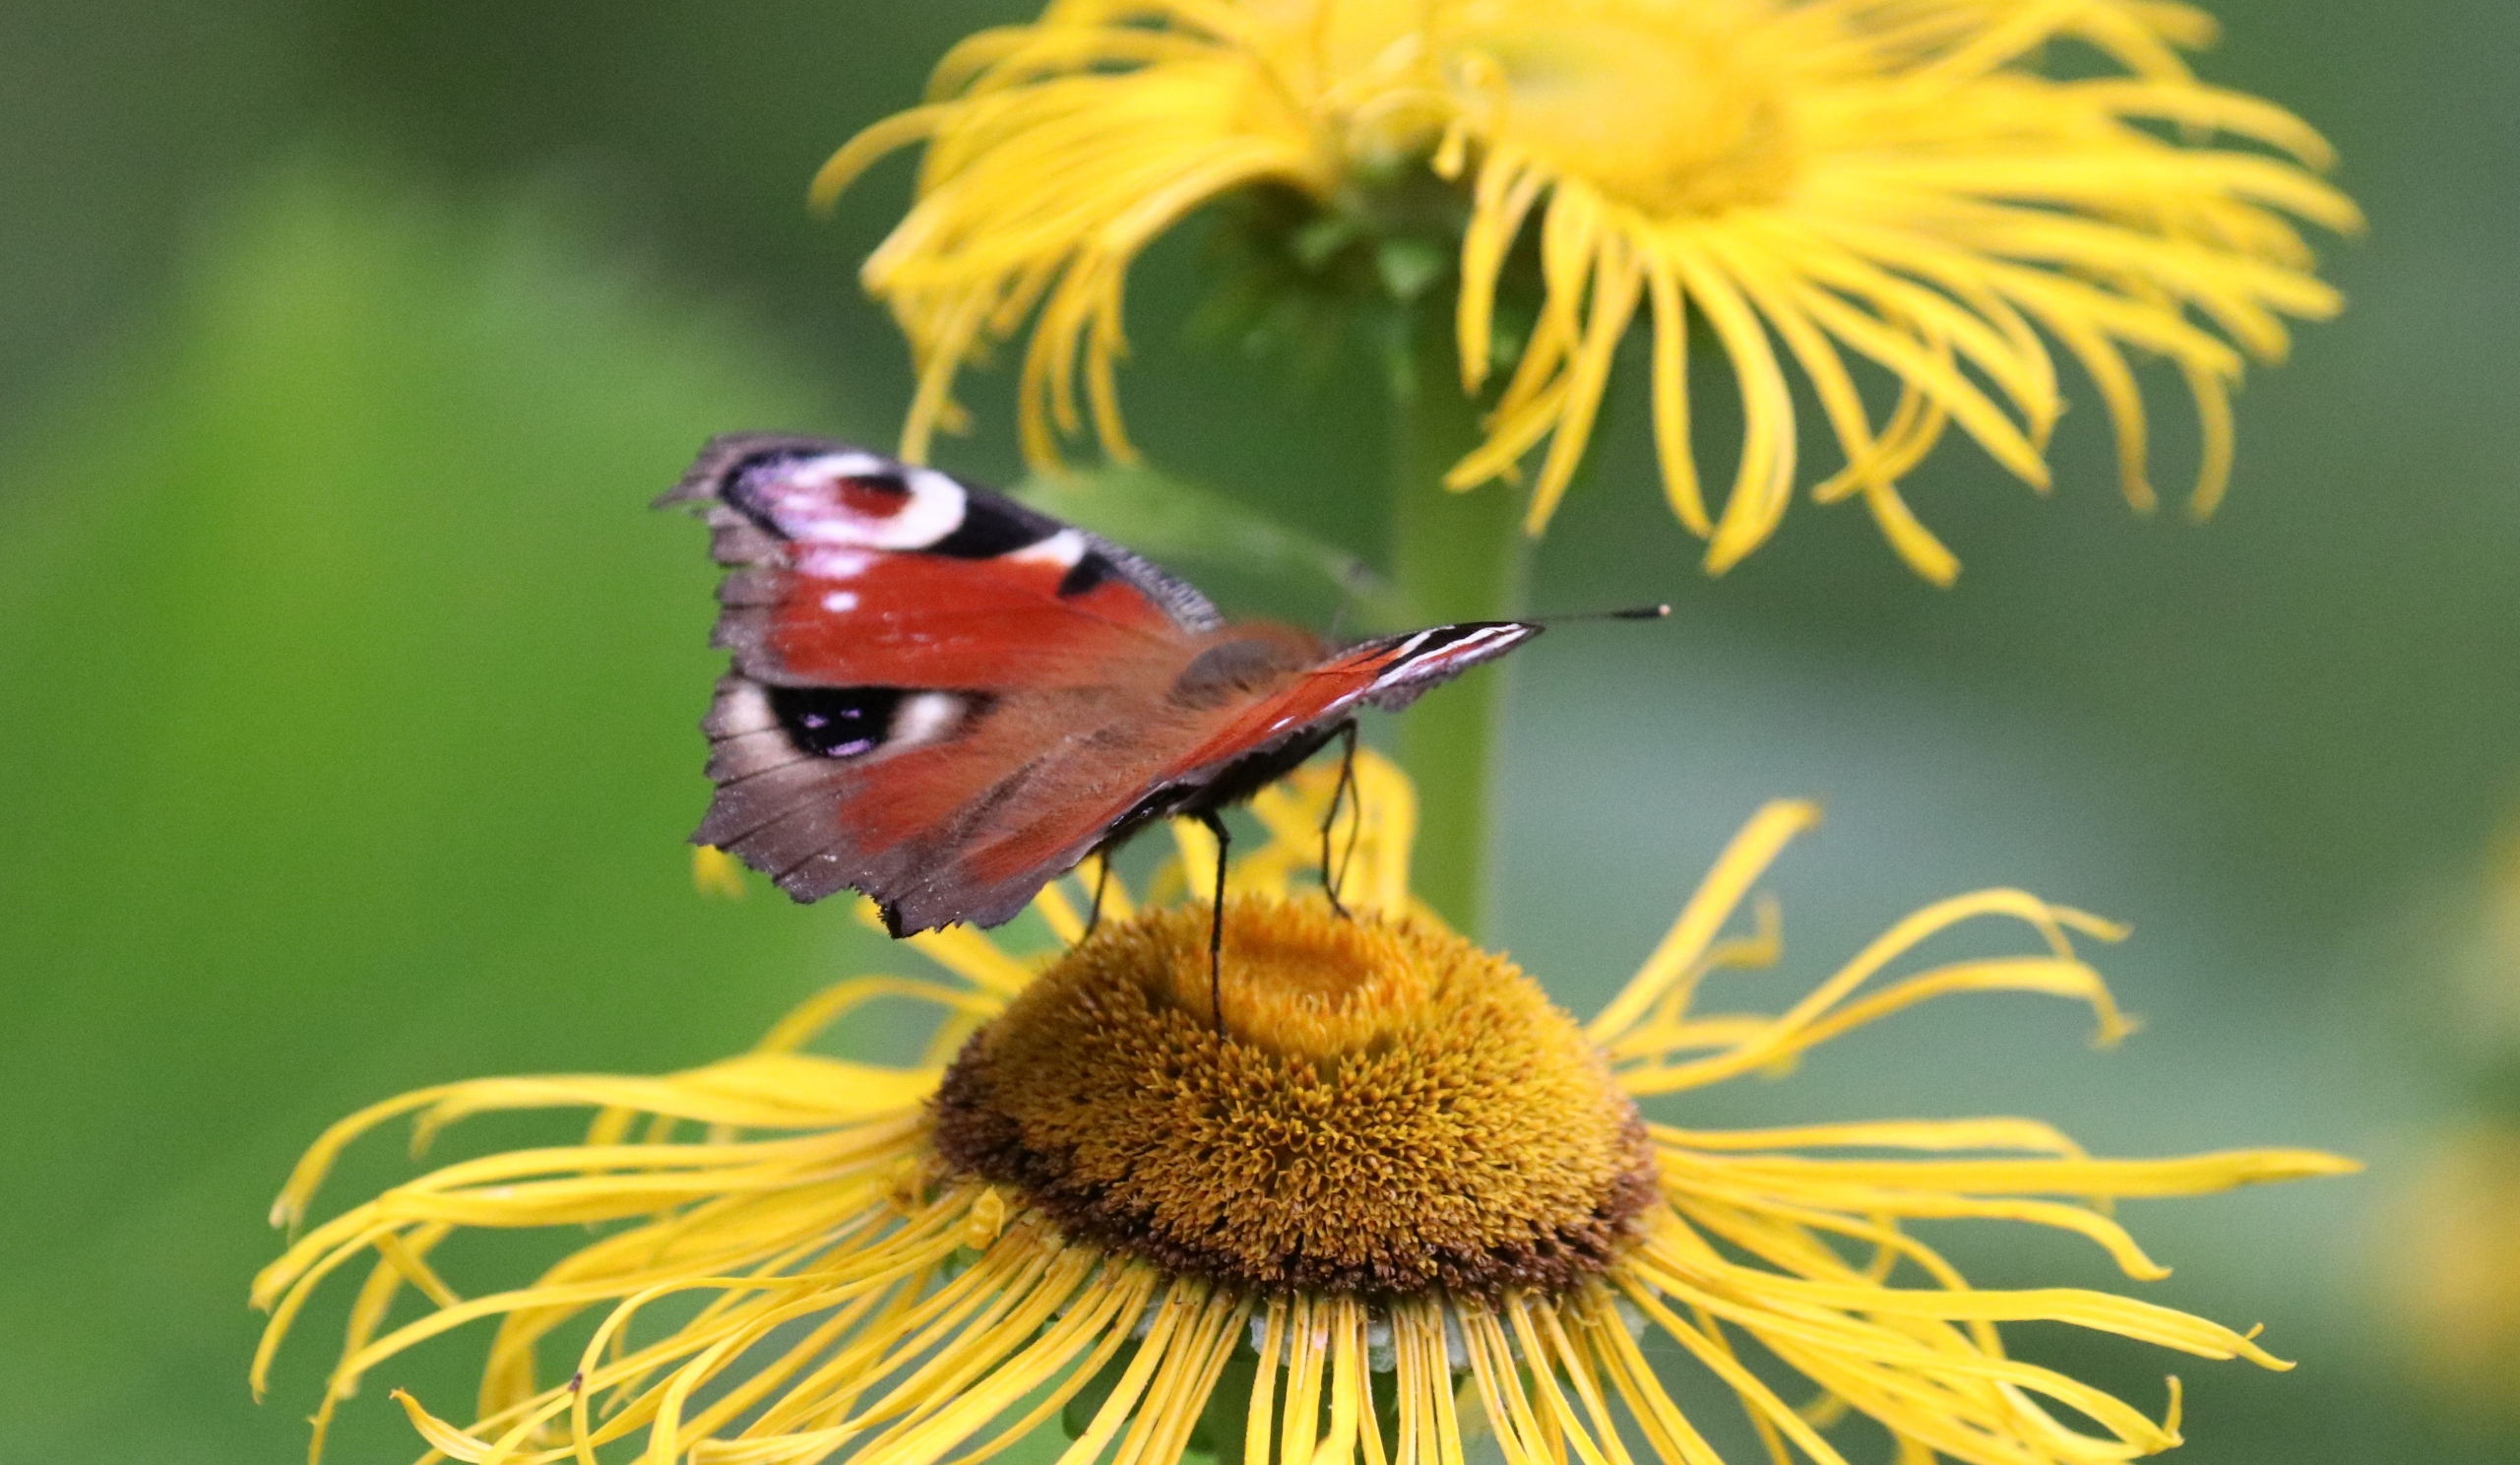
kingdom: Animalia
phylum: Arthropoda
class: Insecta
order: Lepidoptera
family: Nymphalidae
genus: Aglais
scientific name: Aglais io
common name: Dagpåfugleøje
